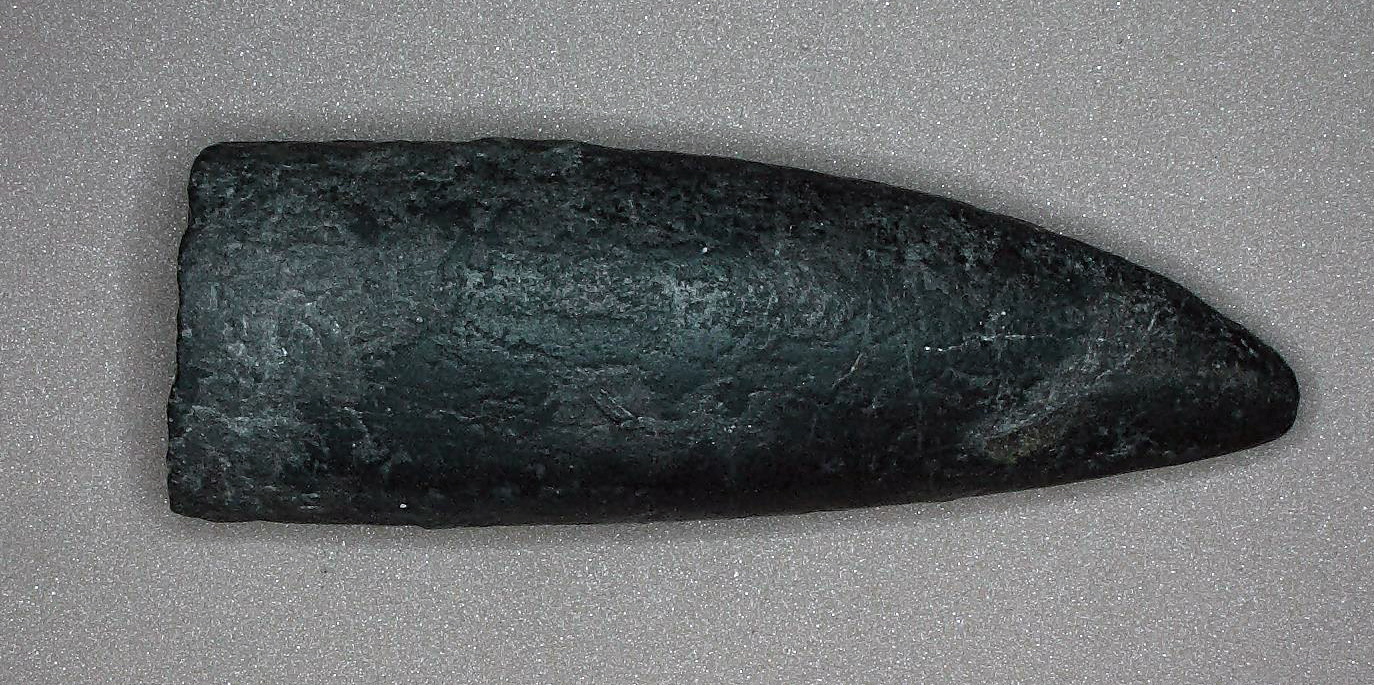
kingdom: Animalia
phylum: Mollusca
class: Cephalopoda
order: Belemnitida
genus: Holcobelus
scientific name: Holcobelus
